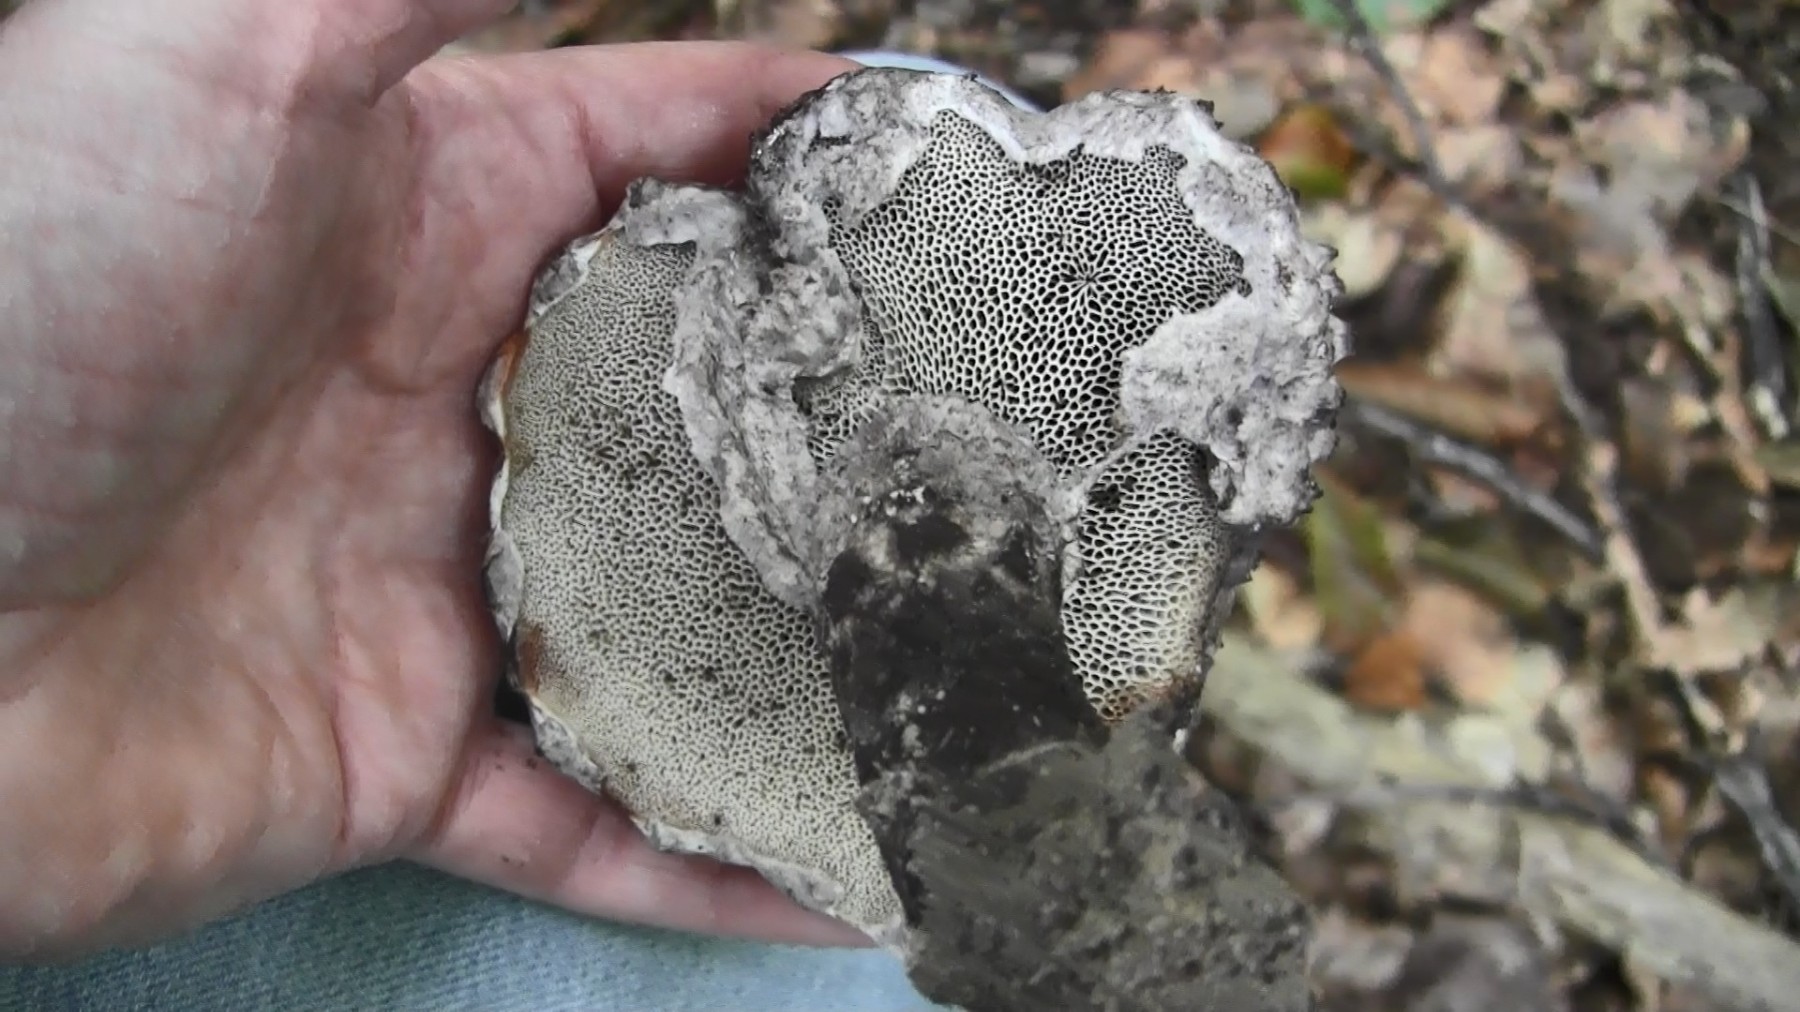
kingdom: Fungi
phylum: Basidiomycota
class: Agaricomycetes
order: Boletales
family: Boletaceae
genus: Strobilomyces
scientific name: Strobilomyces strobilaceus
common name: koglerørhat
